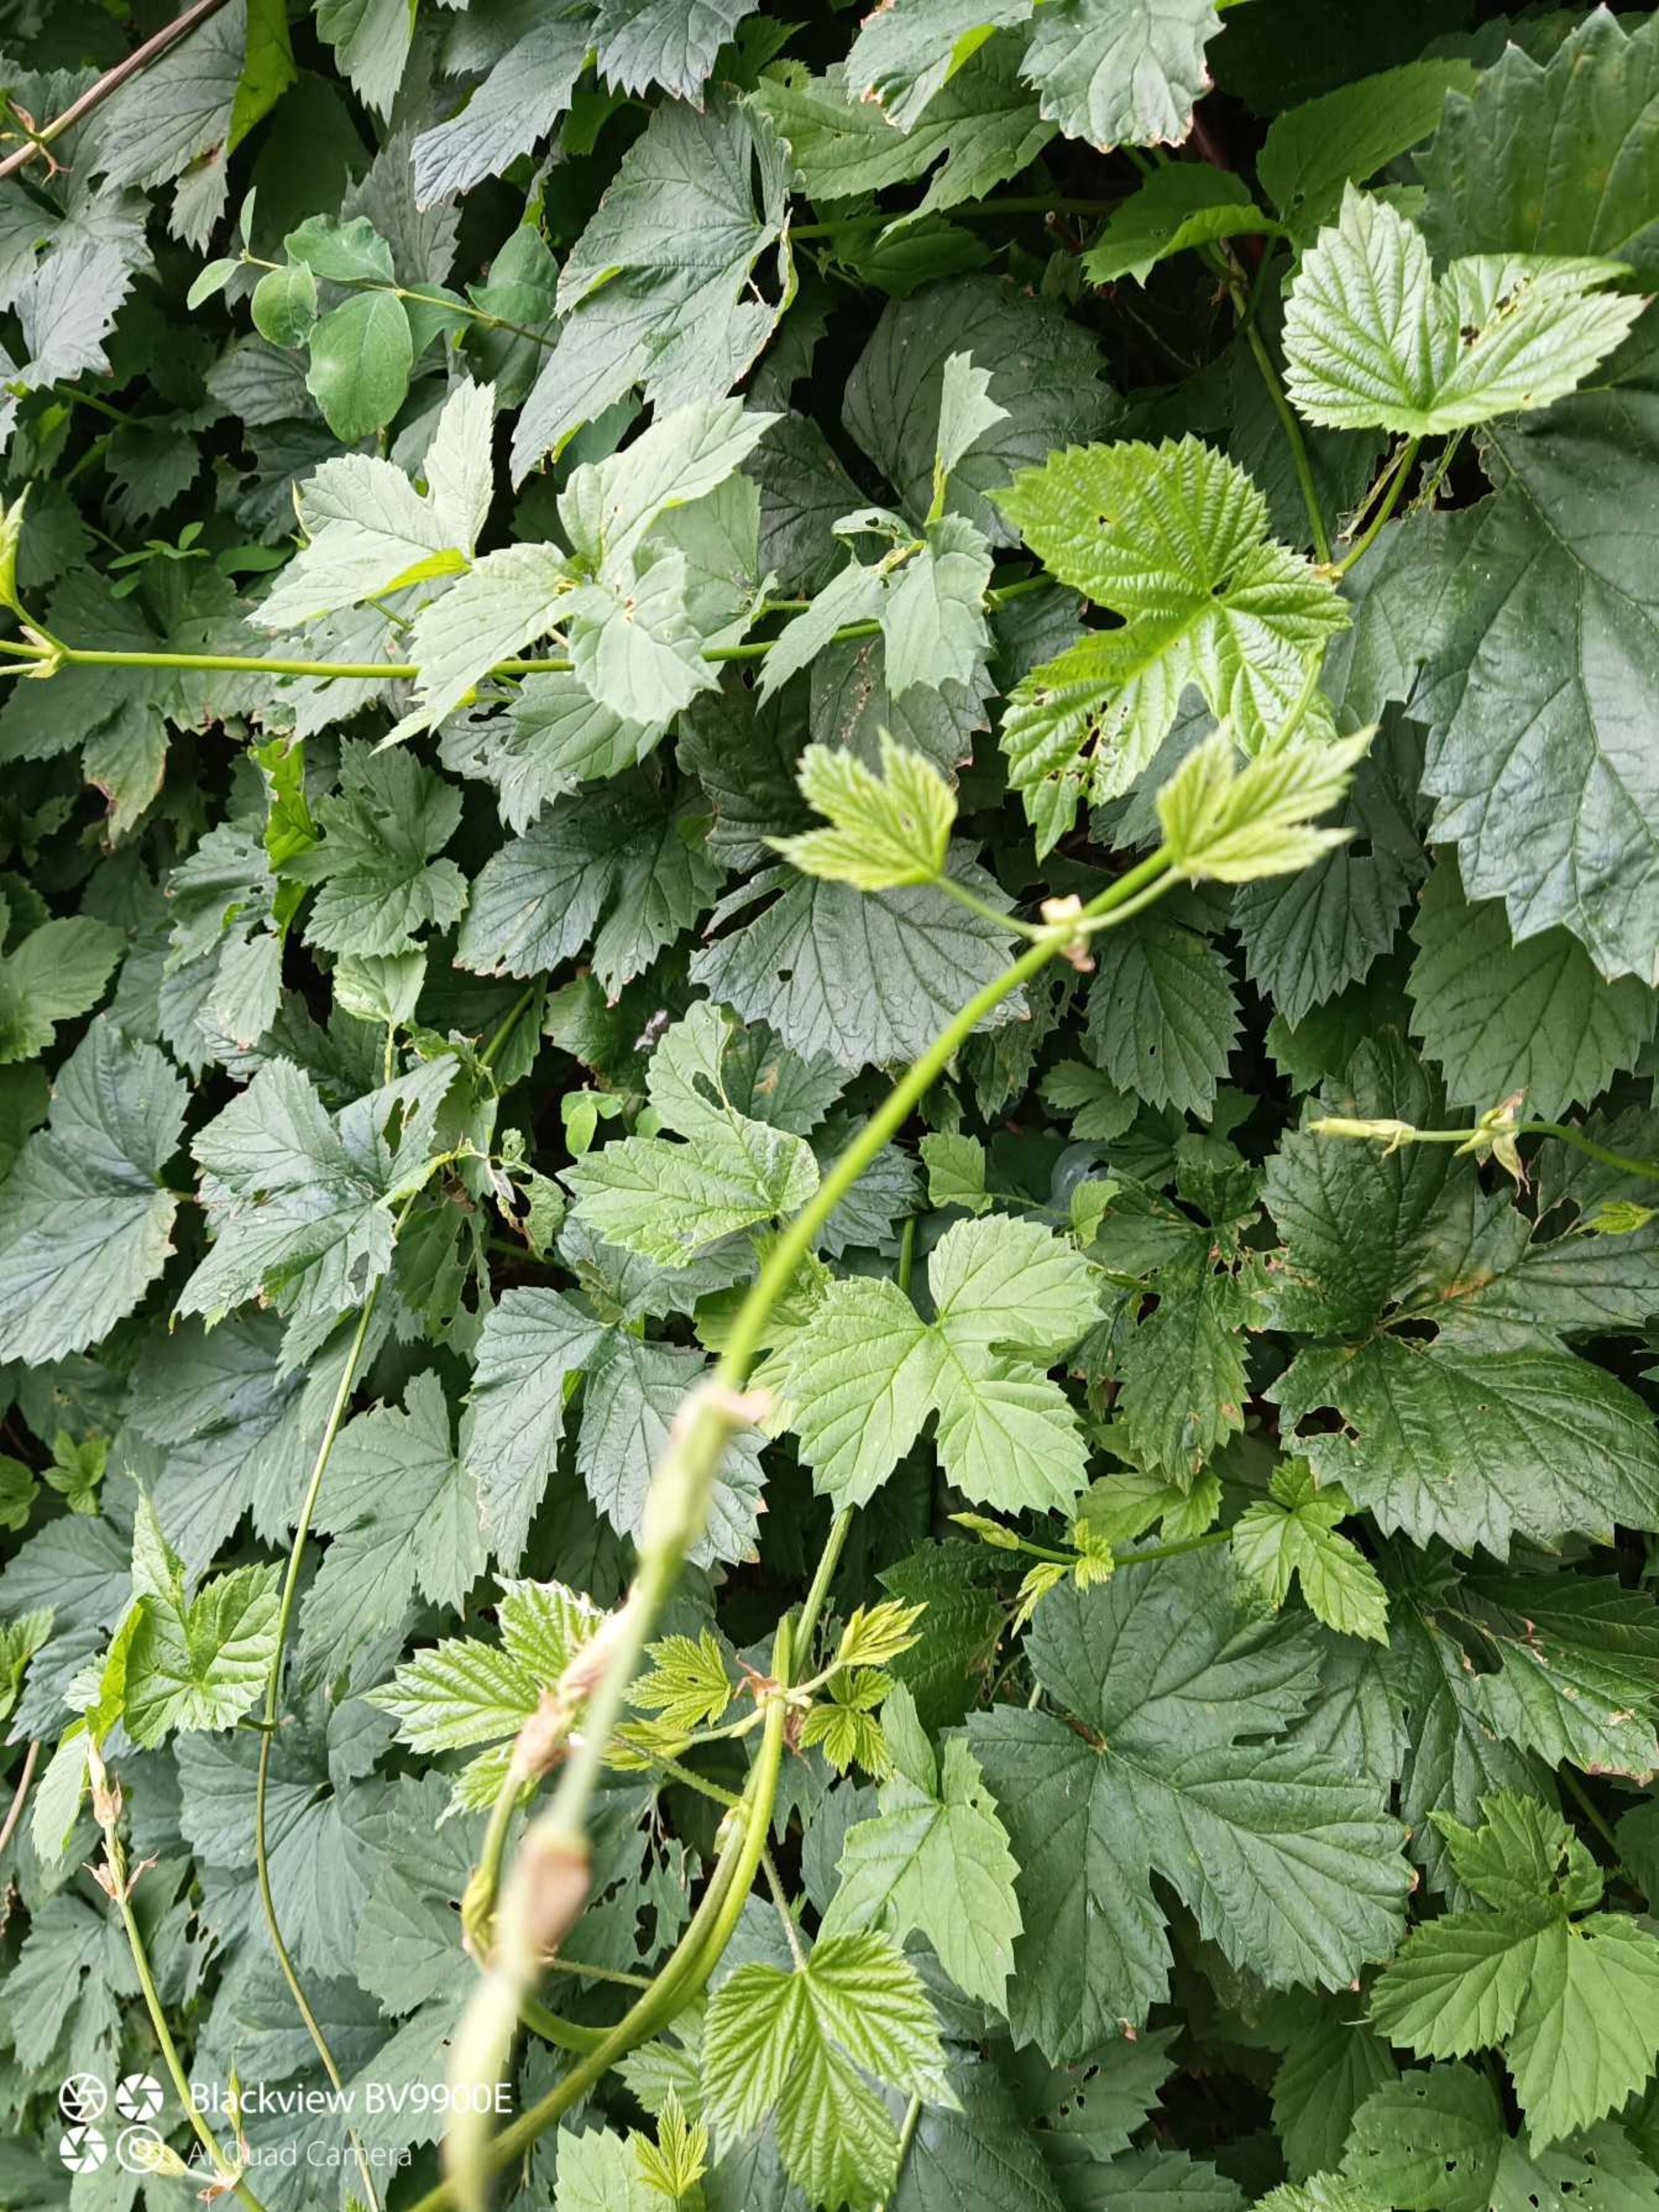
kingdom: Plantae
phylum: Tracheophyta
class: Magnoliopsida
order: Rosales
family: Cannabaceae
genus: Humulus
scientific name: Humulus lupulus
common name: Humle
